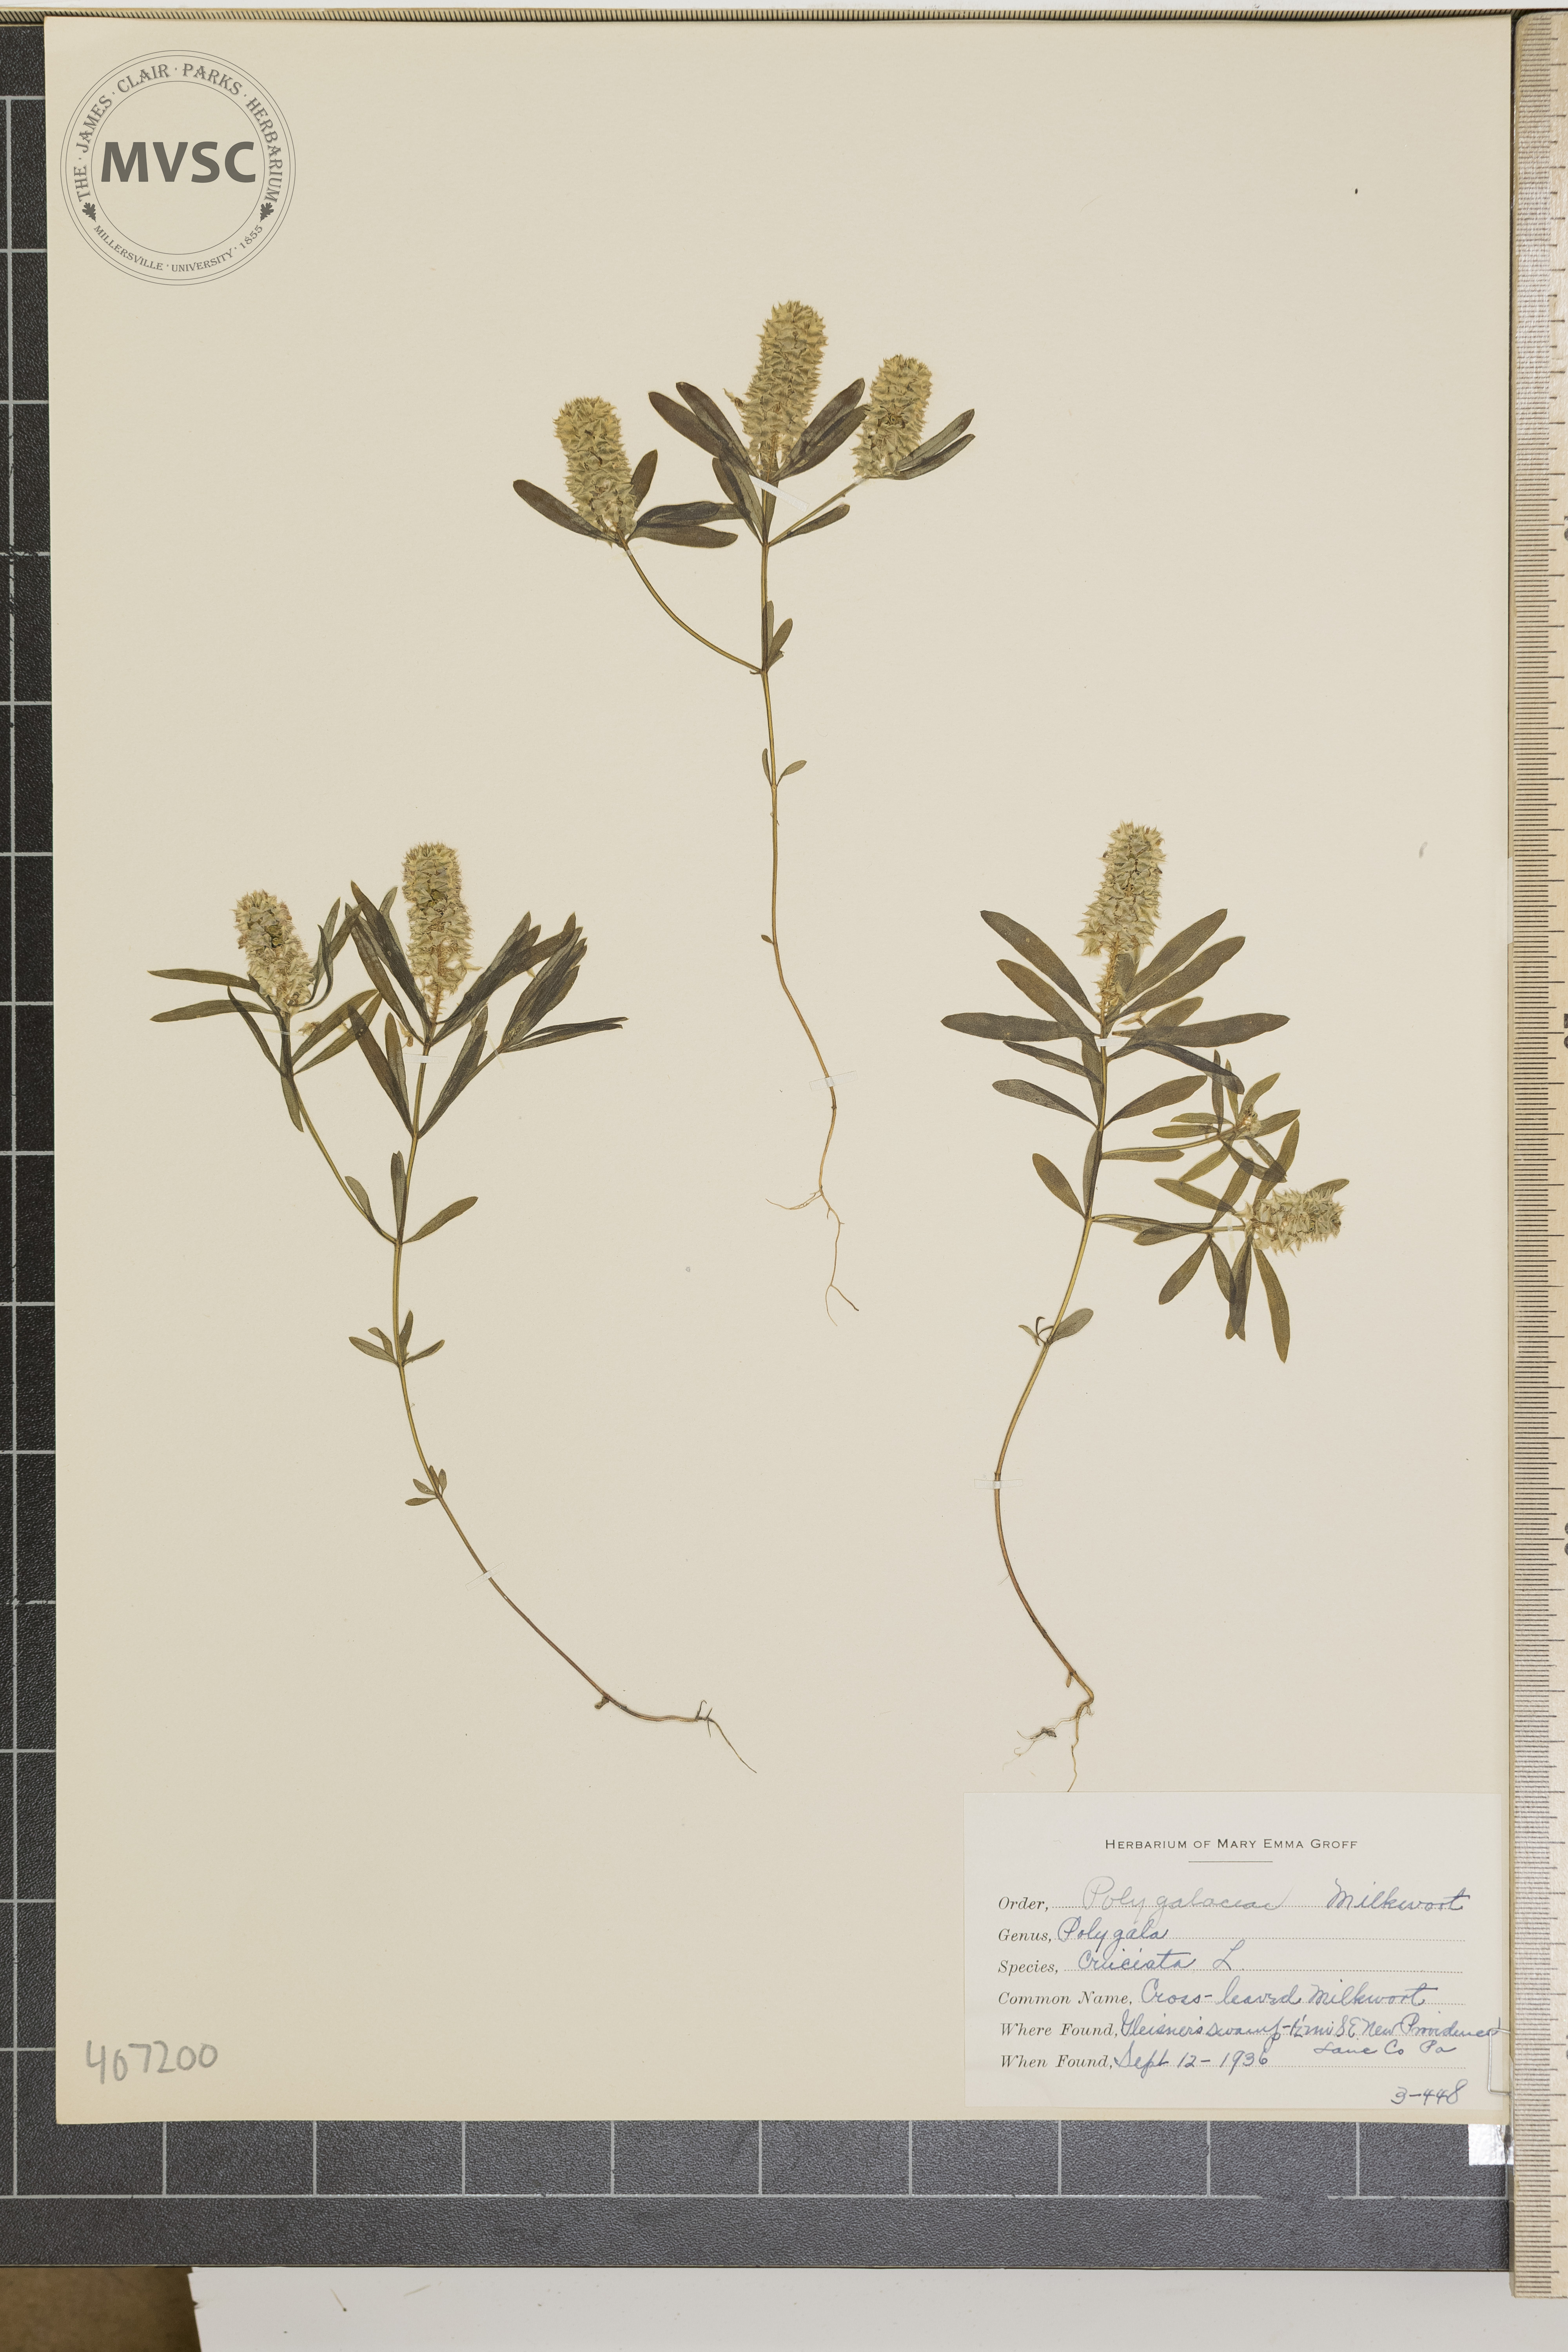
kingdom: Plantae
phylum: Tracheophyta
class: Magnoliopsida
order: Fabales
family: Polygalaceae
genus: Polygala
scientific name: Polygala cruciata
